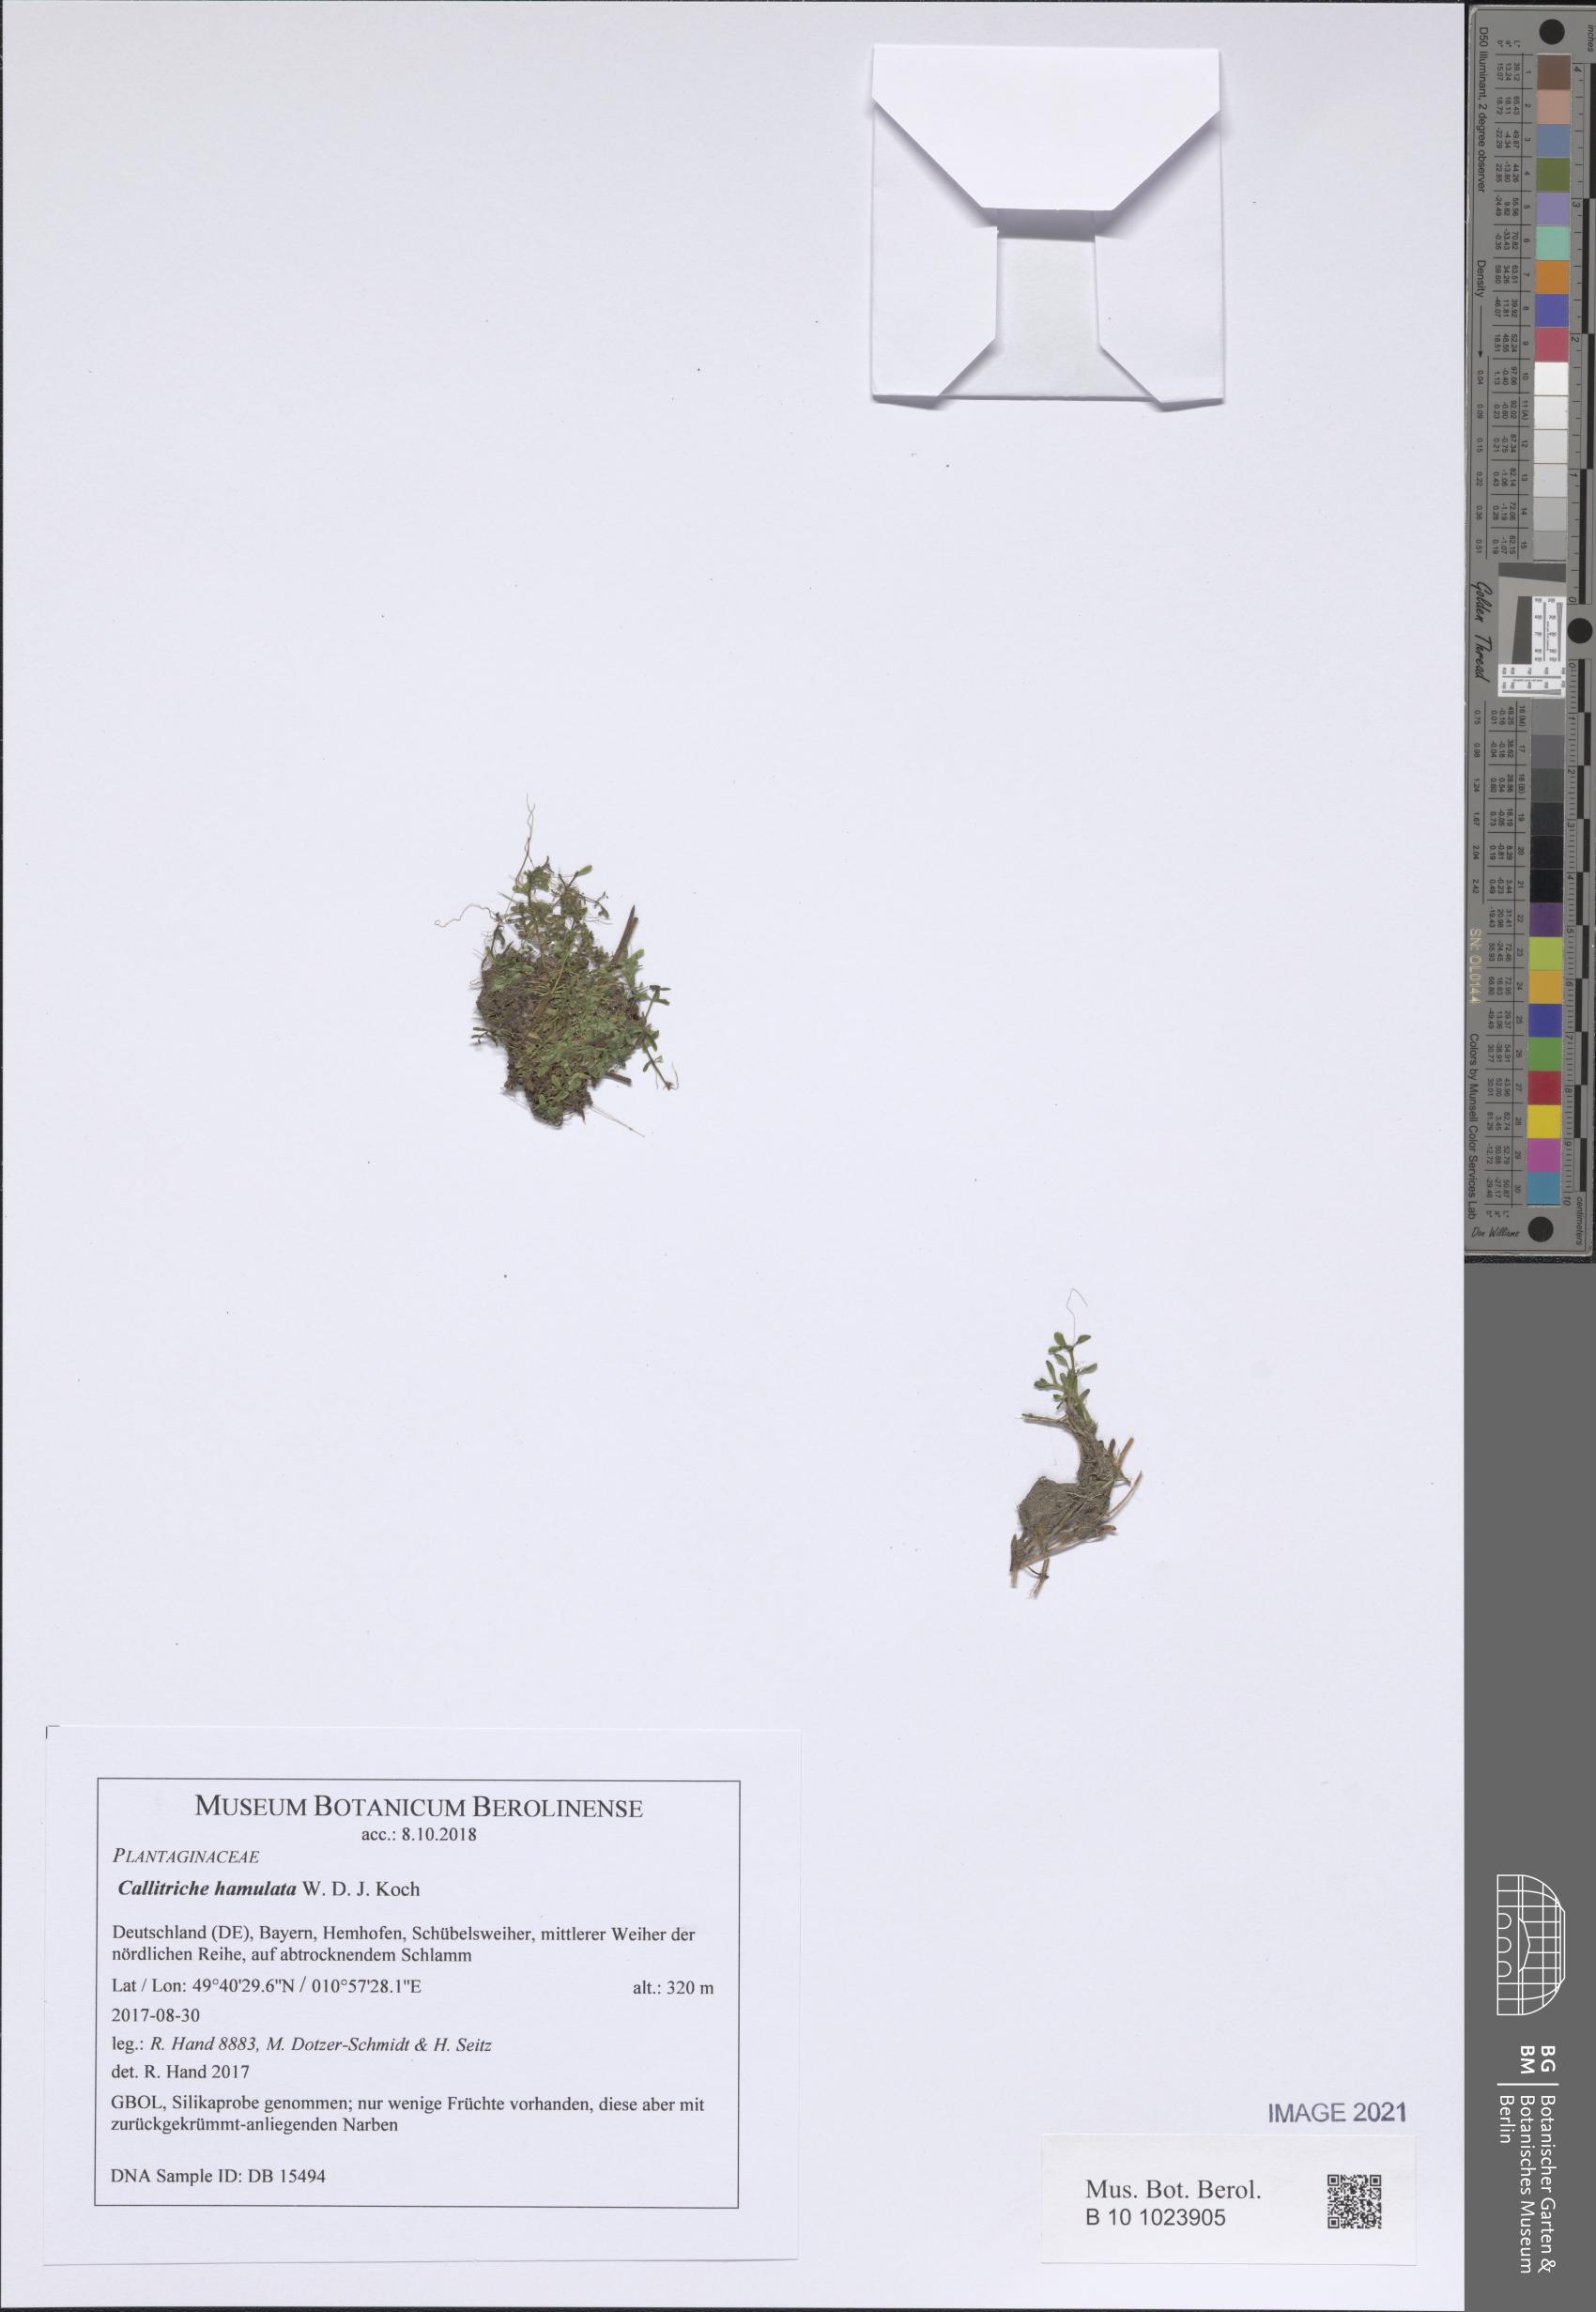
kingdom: Plantae
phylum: Tracheophyta
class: Magnoliopsida
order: Lamiales
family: Plantaginaceae
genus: Callitriche
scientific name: Callitriche hamulata
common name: Intermediate water-starwort
